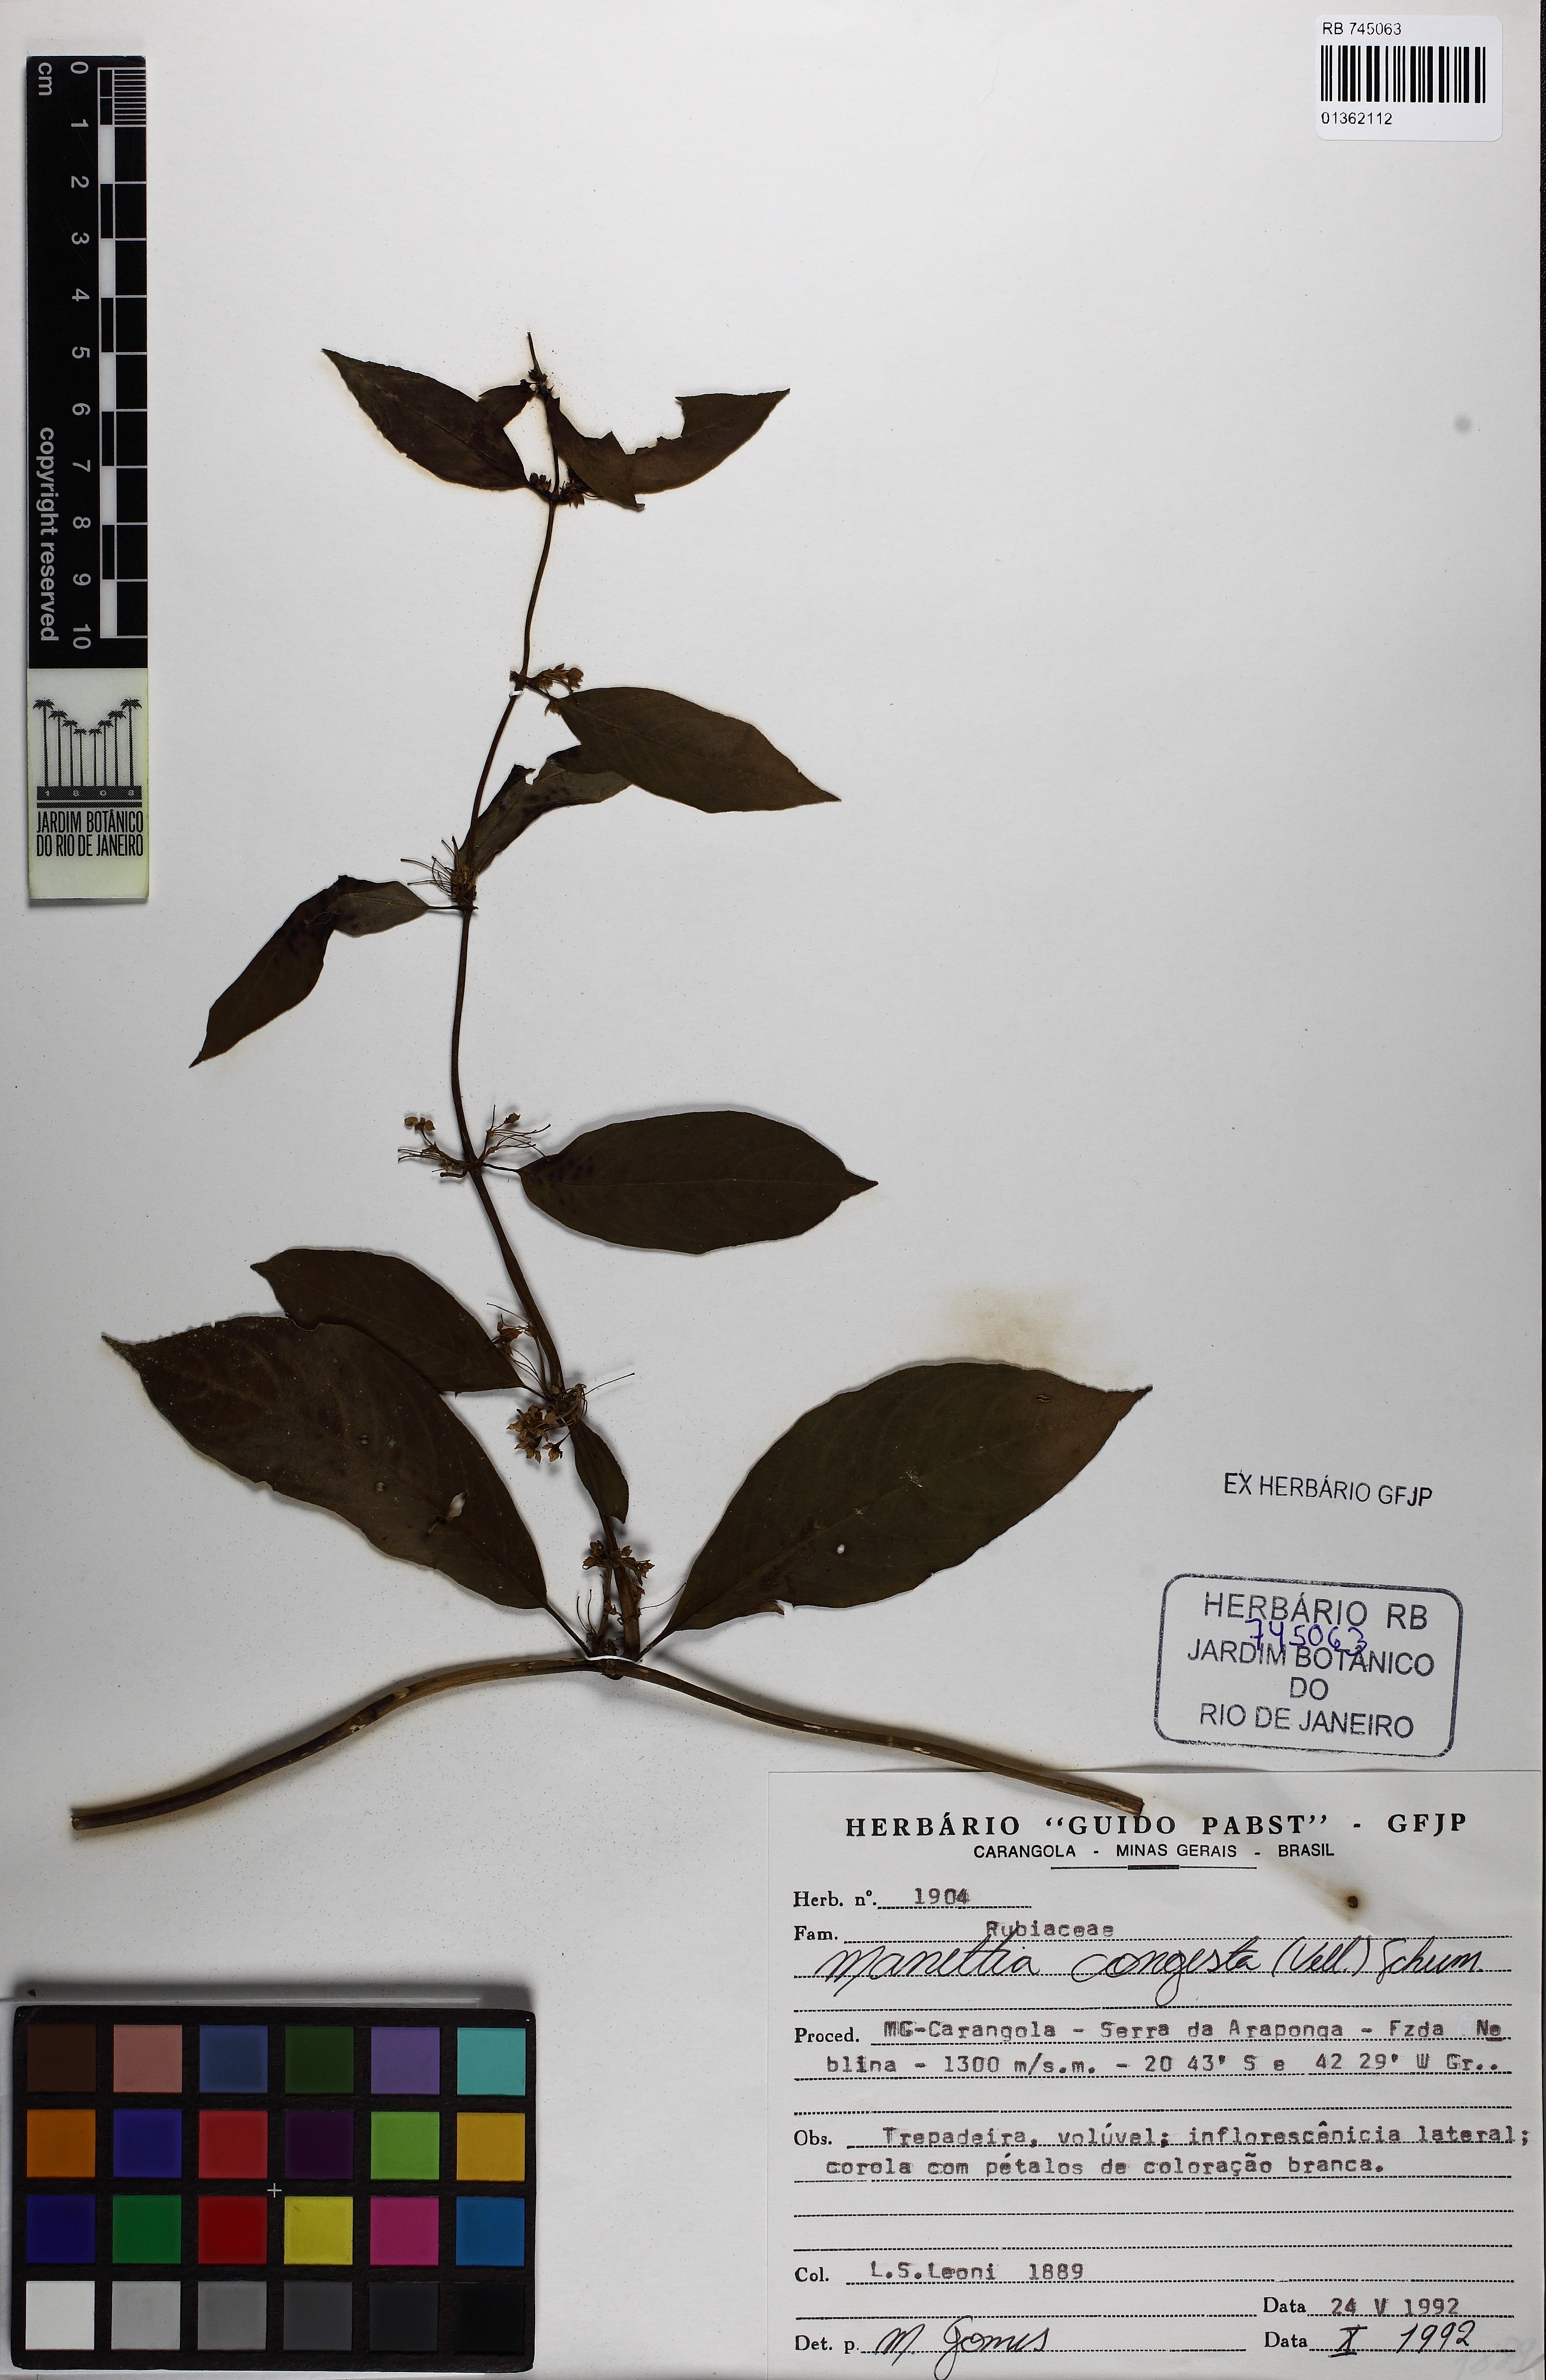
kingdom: Plantae
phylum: Tracheophyta
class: Magnoliopsida
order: Gentianales
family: Rubiaceae
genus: Manettia
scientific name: Manettia congesta
